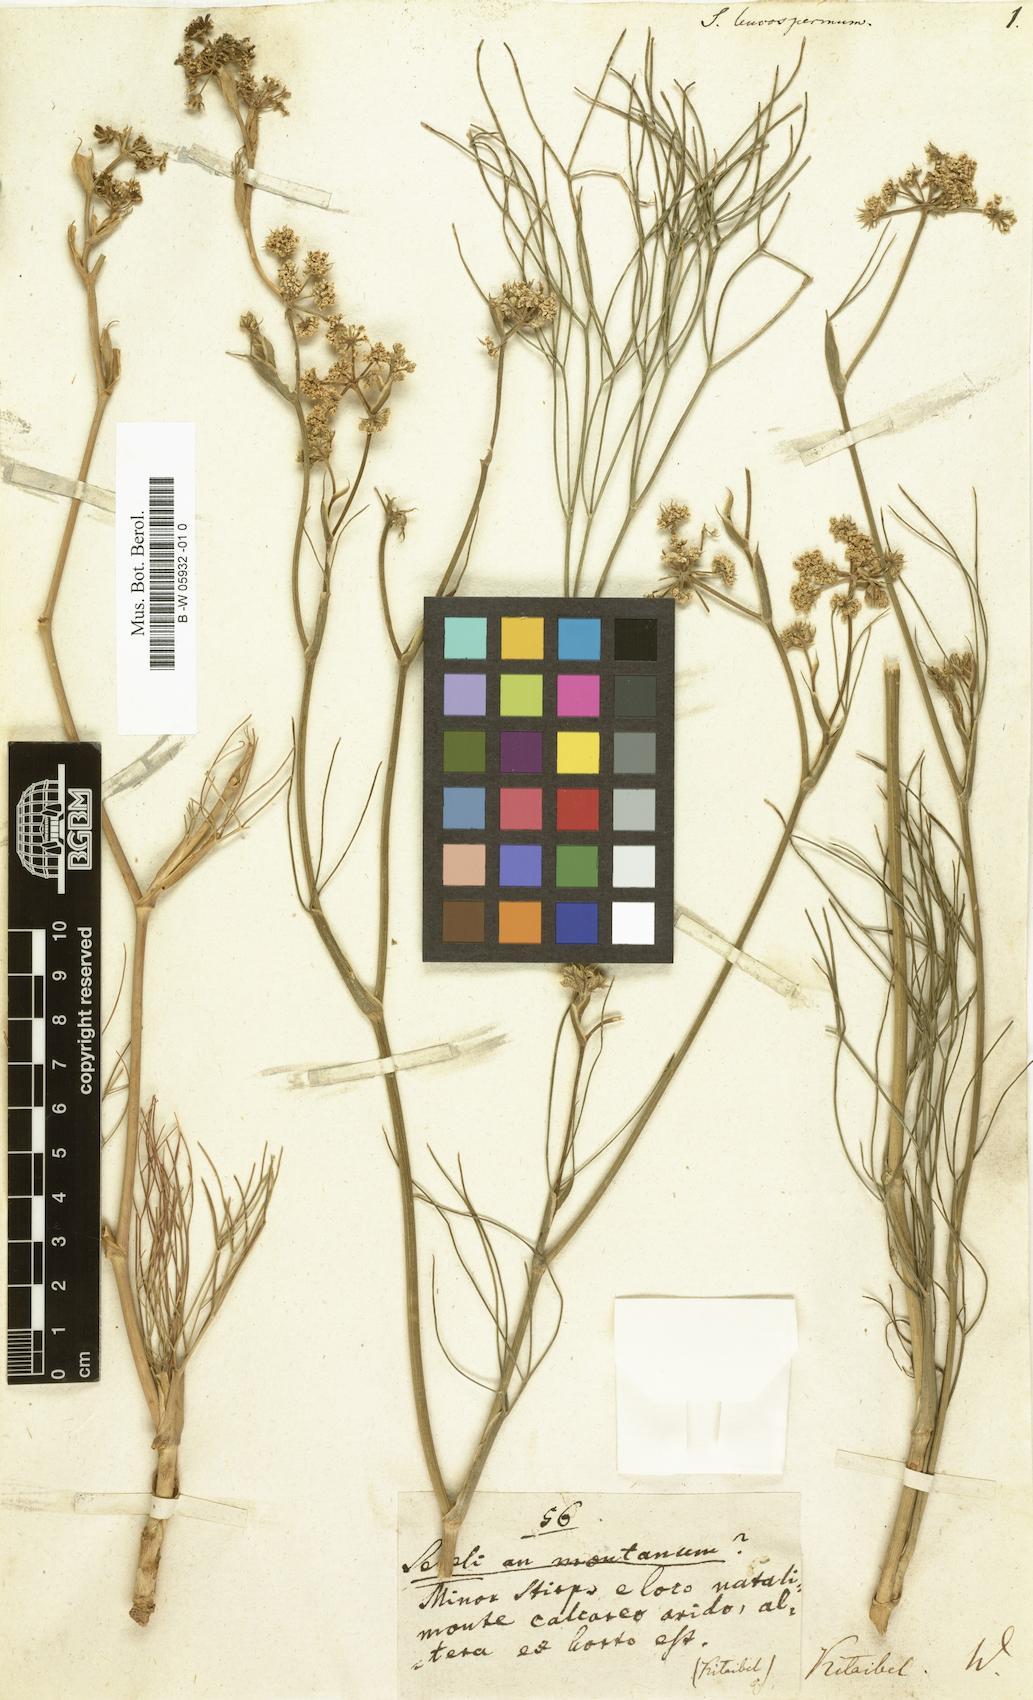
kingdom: Plantae
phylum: Tracheophyta
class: Magnoliopsida
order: Apiales
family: Apiaceae
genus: Seseli
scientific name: Seseli leucospermum
